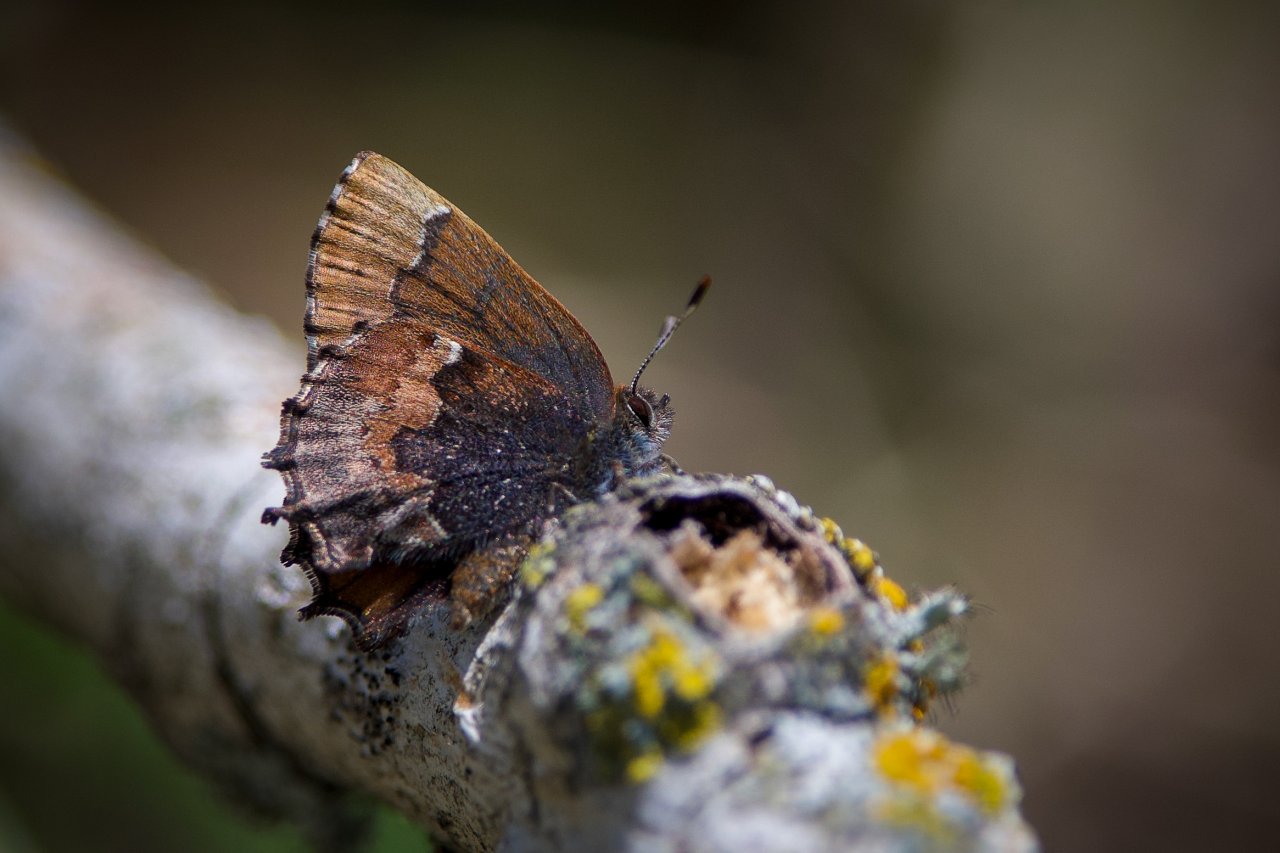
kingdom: Animalia
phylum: Arthropoda
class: Insecta
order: Lepidoptera
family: Lycaenidae
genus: Incisalia
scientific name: Incisalia henrici
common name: Henry's Elfin
